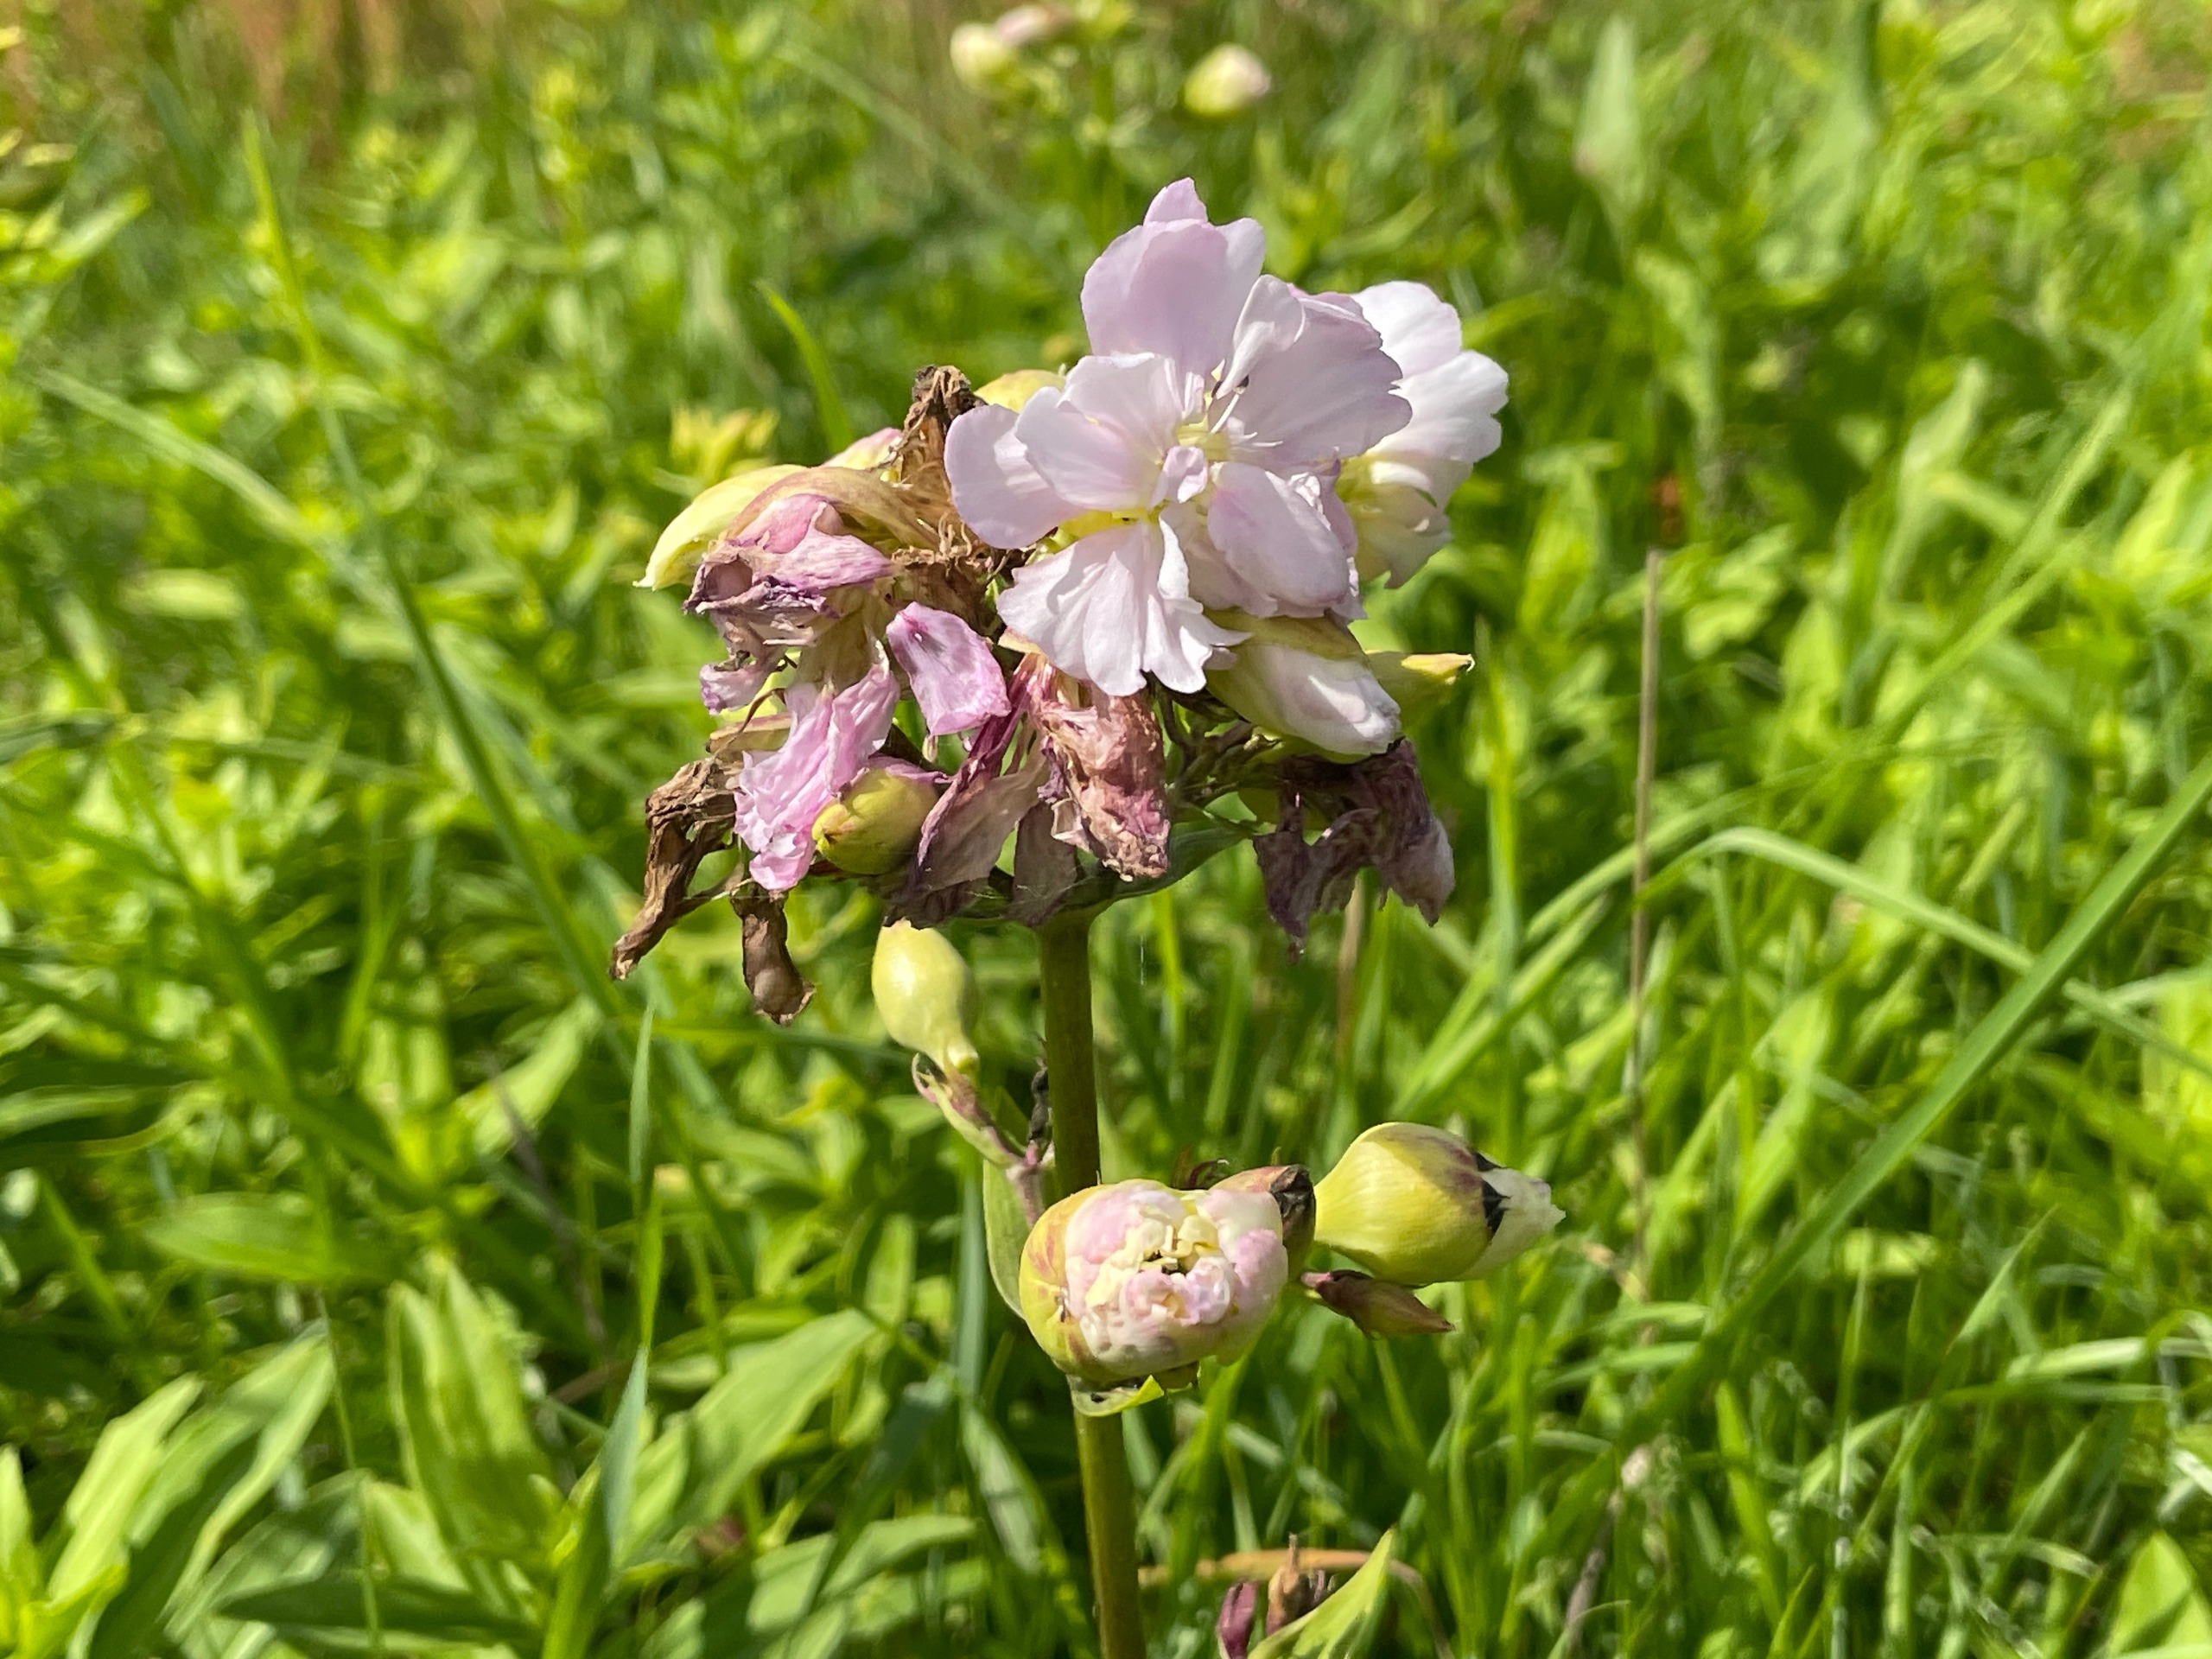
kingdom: Plantae
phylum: Tracheophyta
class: Magnoliopsida
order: Caryophyllales
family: Caryophyllaceae
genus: Saponaria
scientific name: Saponaria officinalis
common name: Sæbeurt
